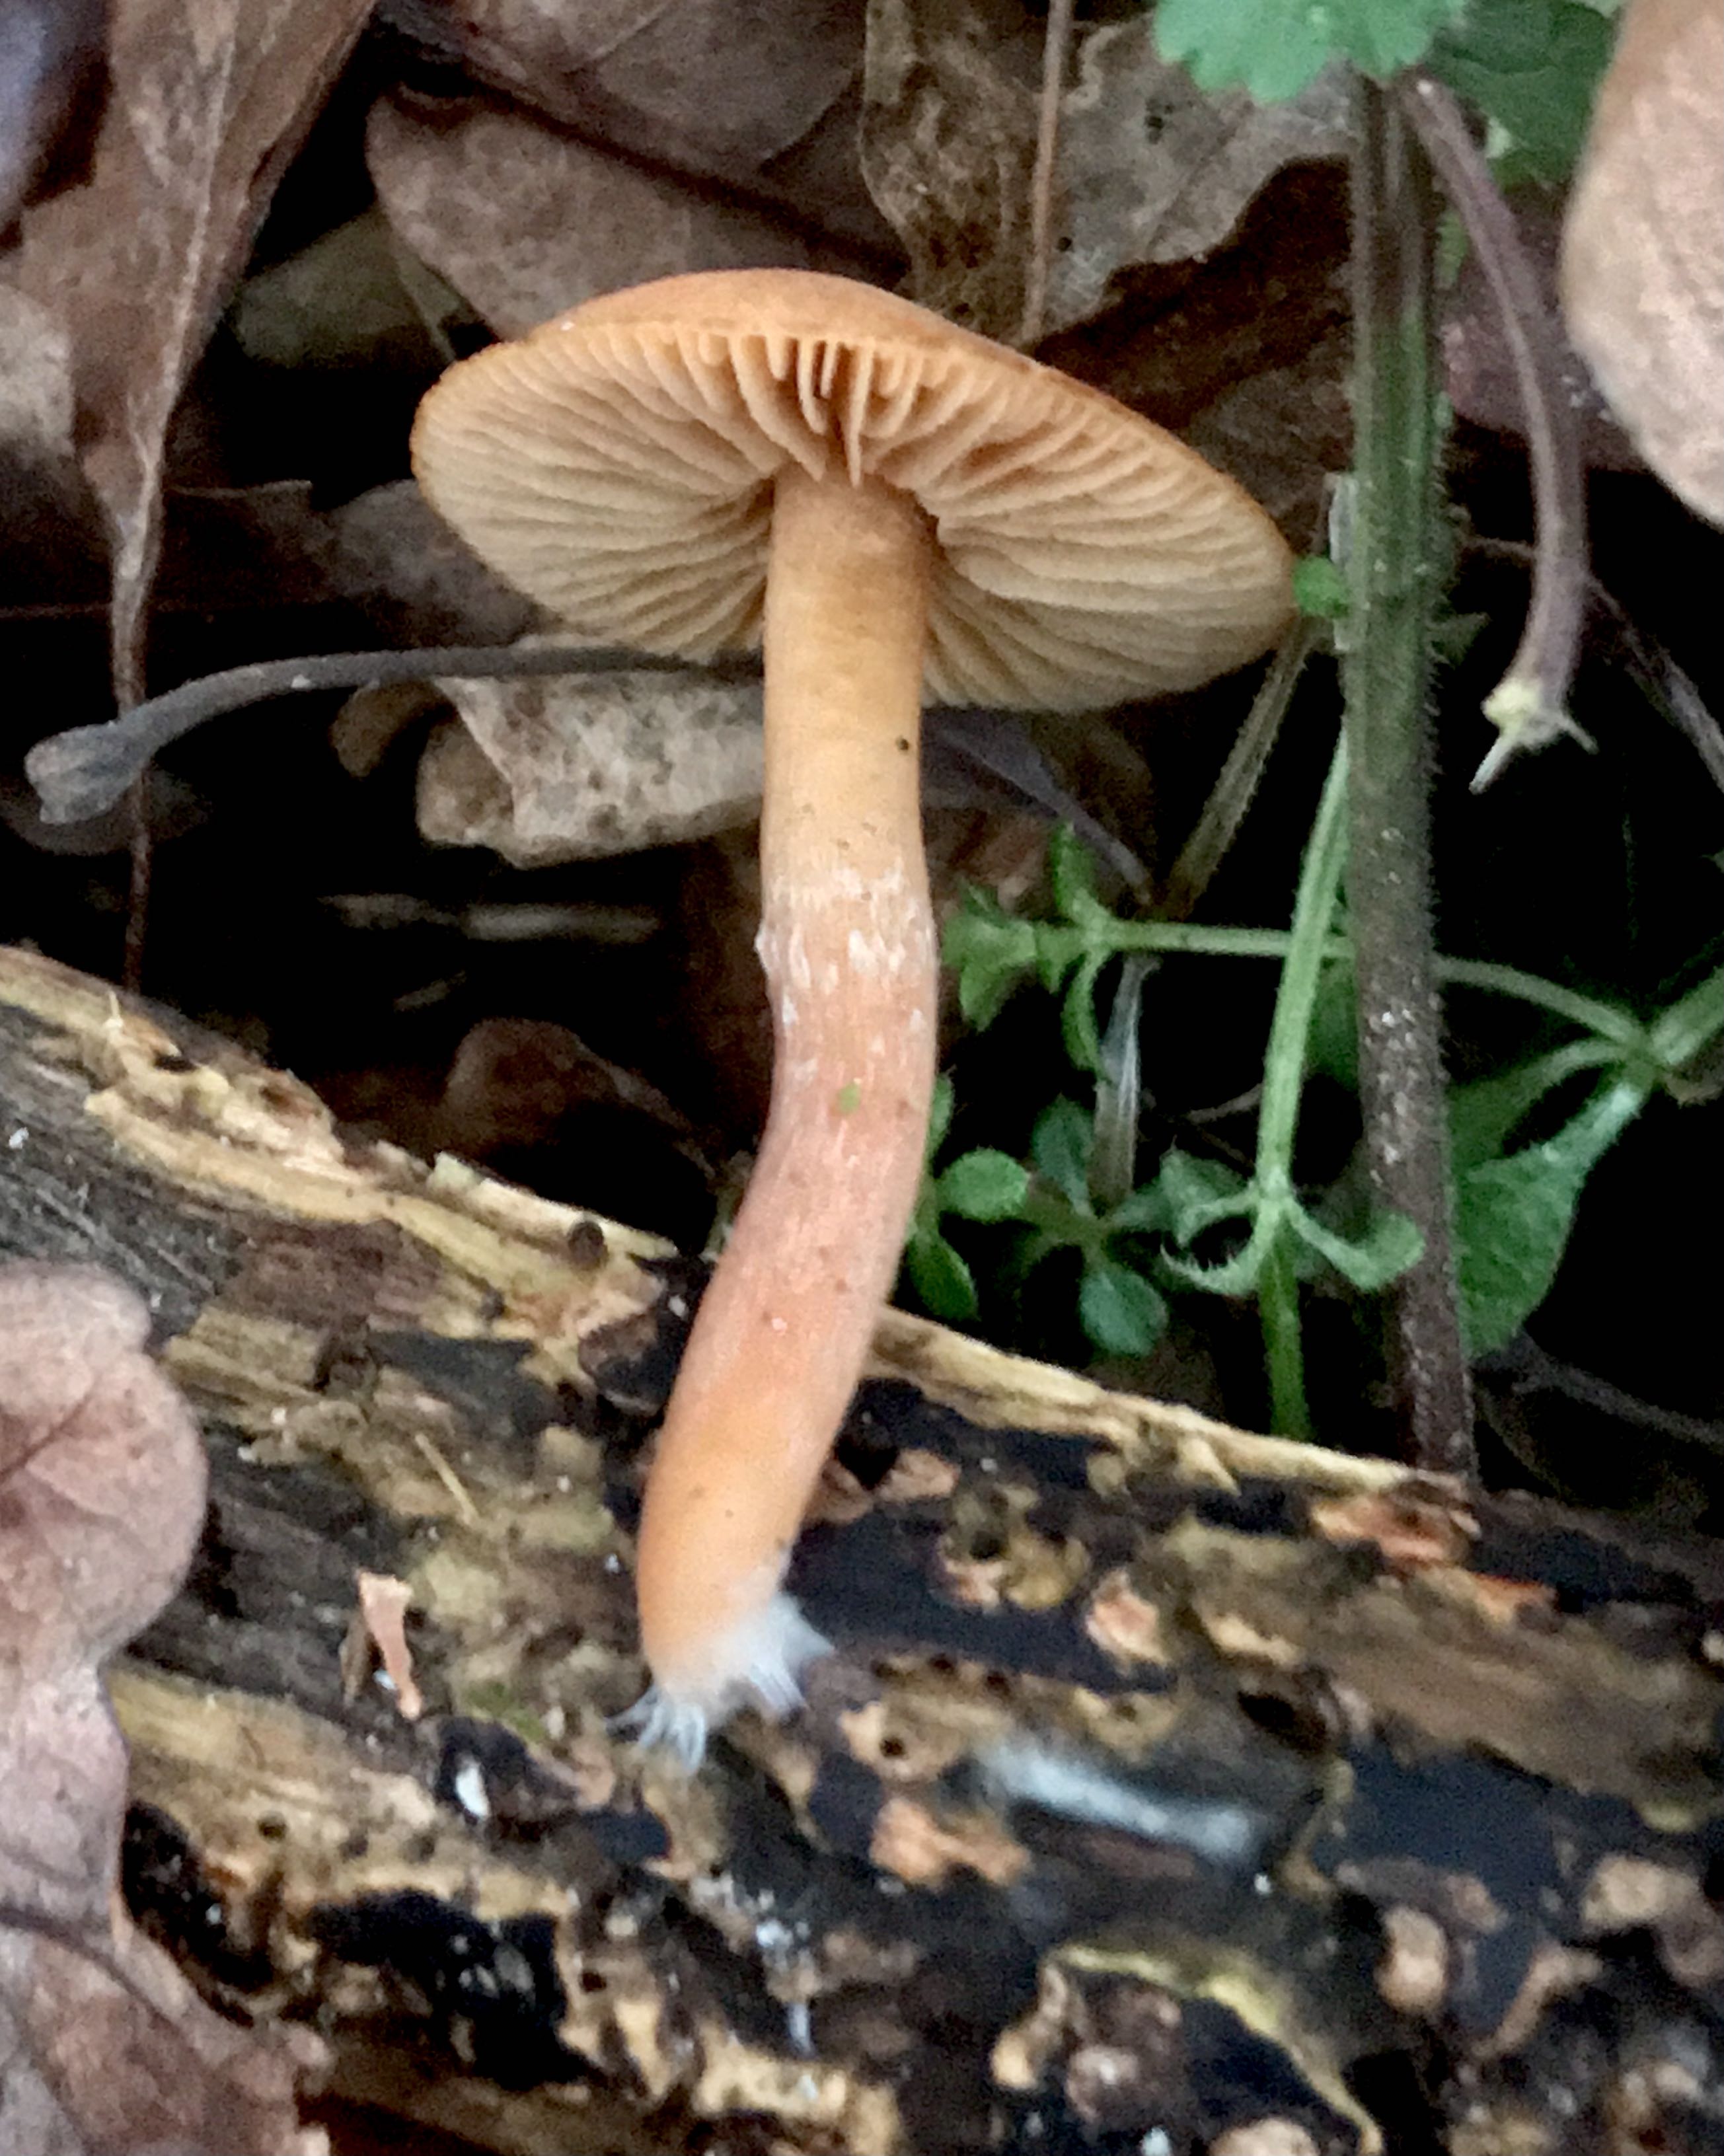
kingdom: Fungi
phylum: Basidiomycota
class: Agaricomycetes
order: Agaricales
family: Tubariaceae
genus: Tubaria
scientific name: Tubaria furfuracea
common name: kliddet fnughat
